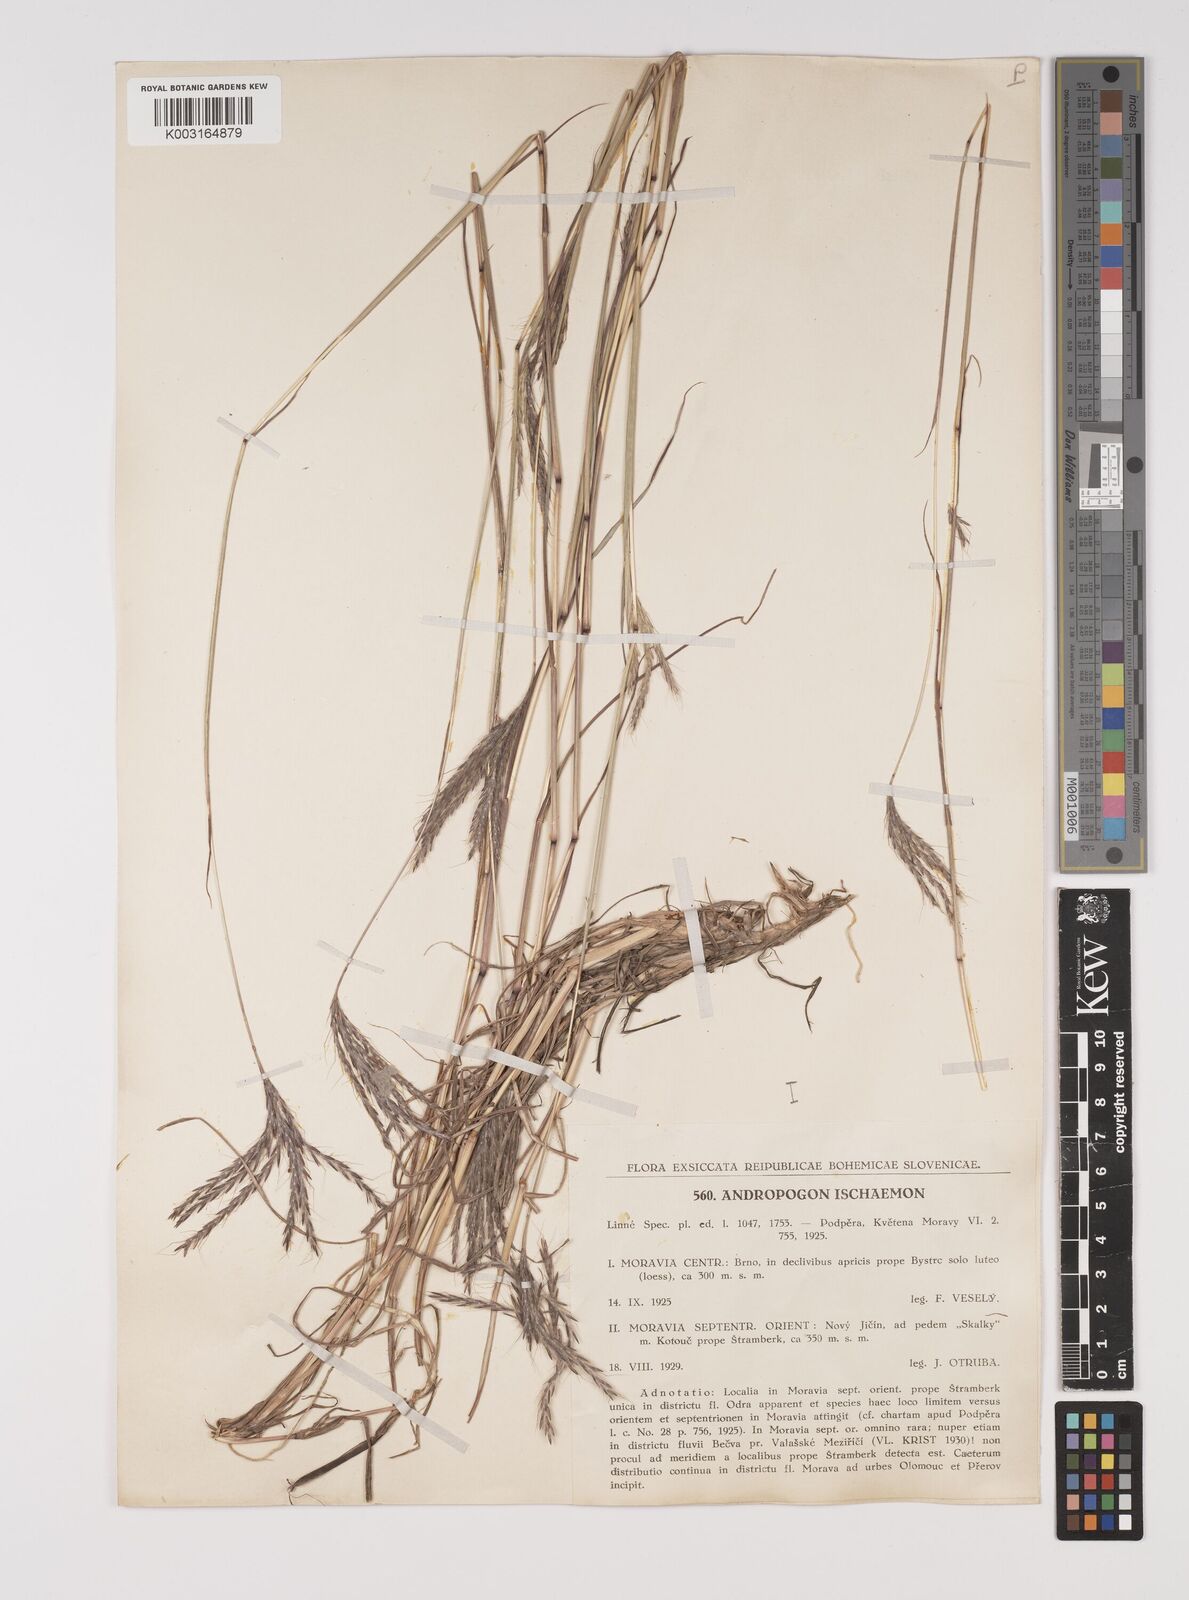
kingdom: Plantae
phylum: Tracheophyta
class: Liliopsida
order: Poales
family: Poaceae
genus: Bothriochloa
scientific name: Bothriochloa ischaemum
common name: Yellow bluestem
